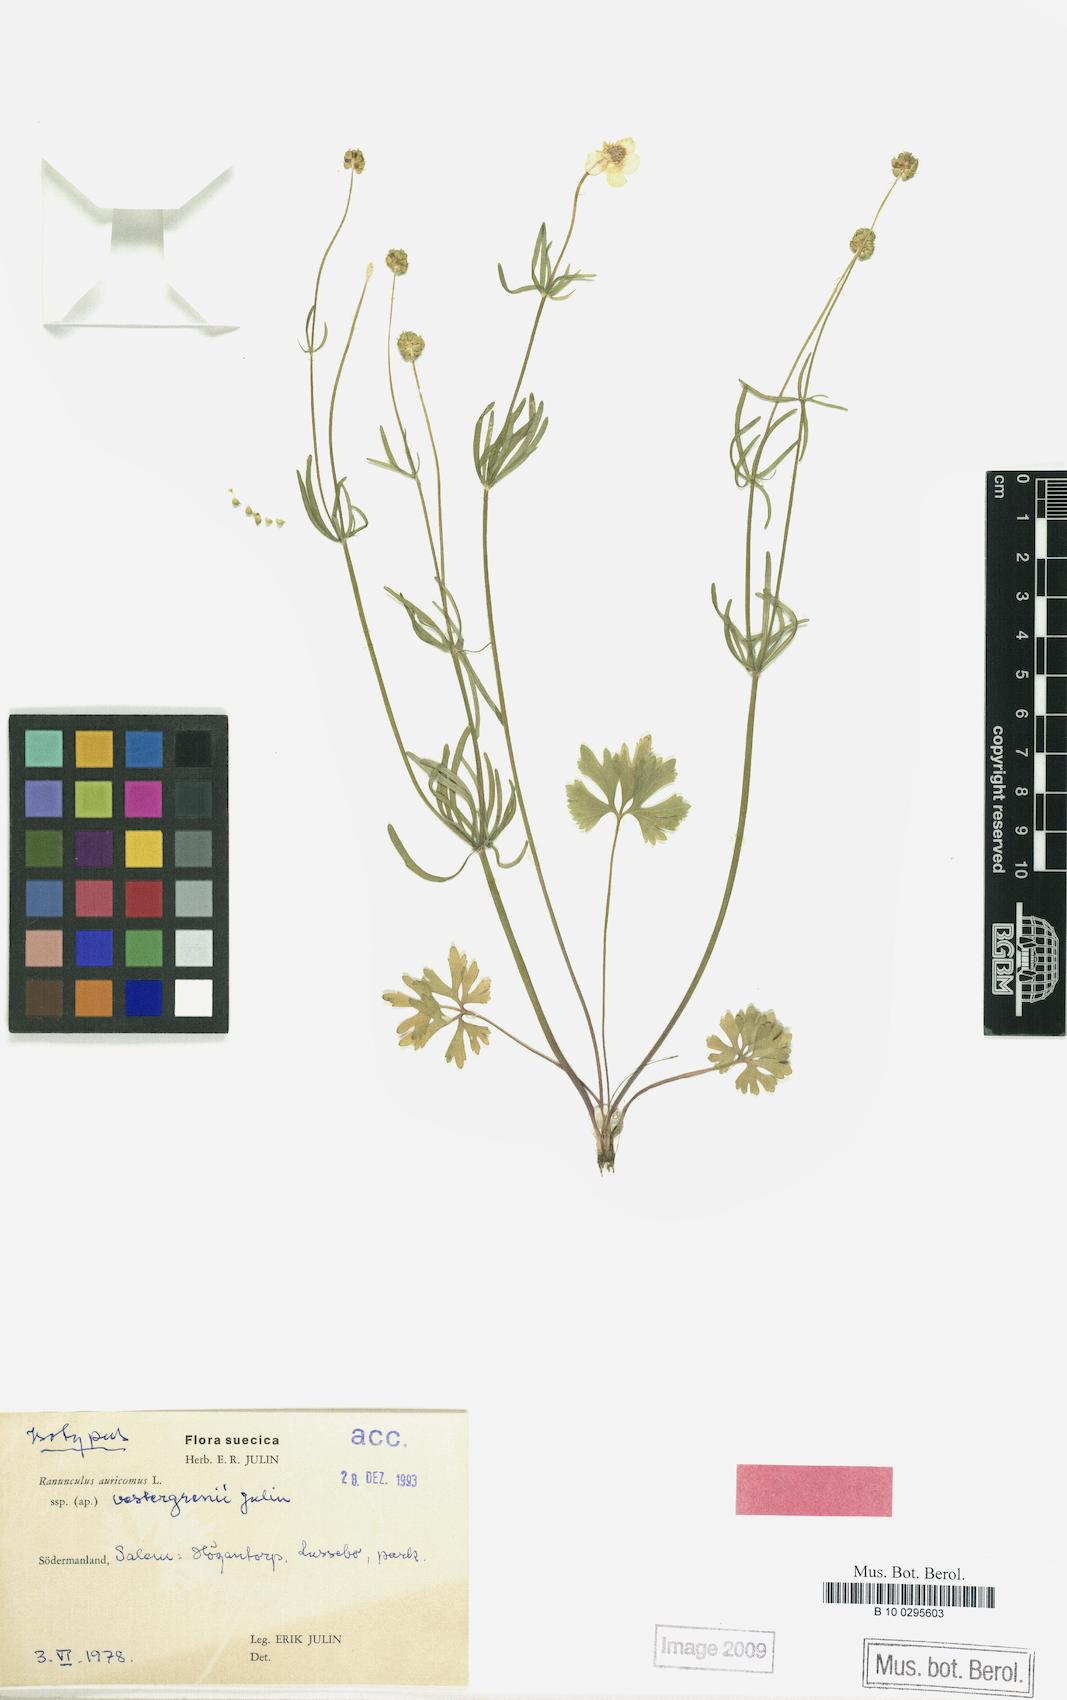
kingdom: Plantae
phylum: Tracheophyta
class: Magnoliopsida
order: Ranunculales
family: Ranunculaceae
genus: Ranunculus
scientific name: Ranunculus vestergrenii
